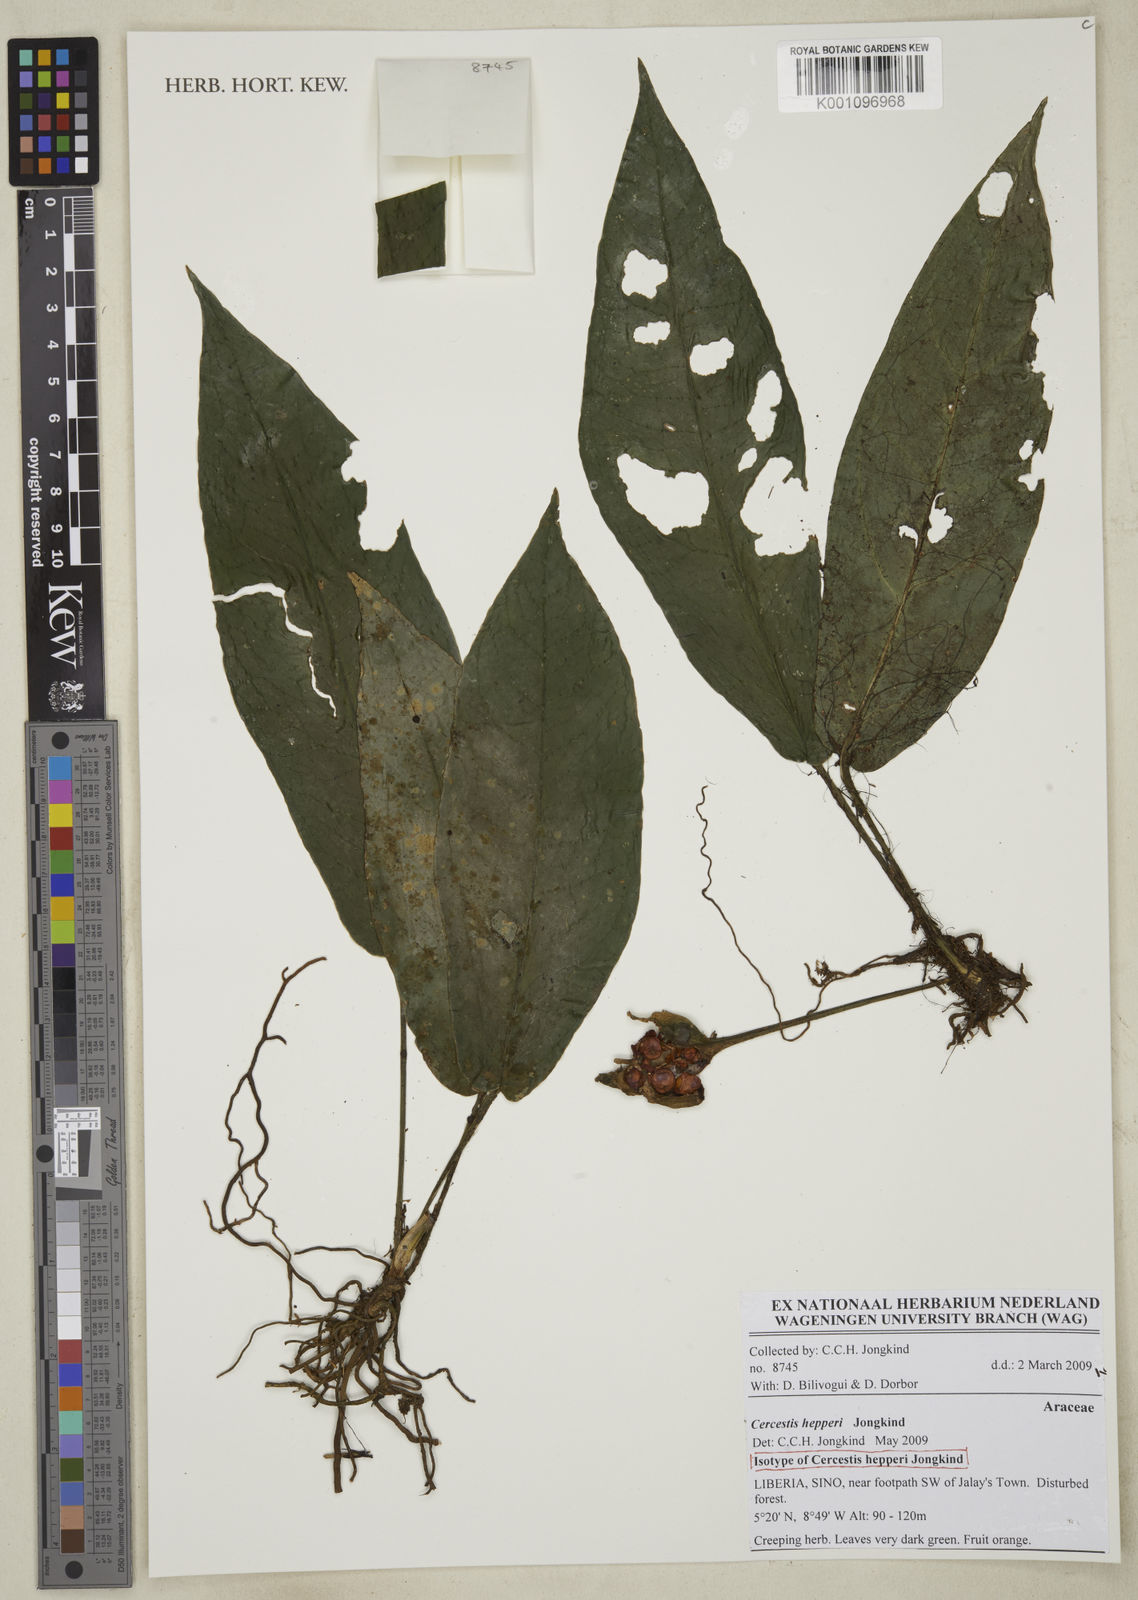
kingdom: Plantae
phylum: Tracheophyta
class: Liliopsida
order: Alismatales
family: Araceae
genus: Cercestis
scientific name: Cercestis hepperi
